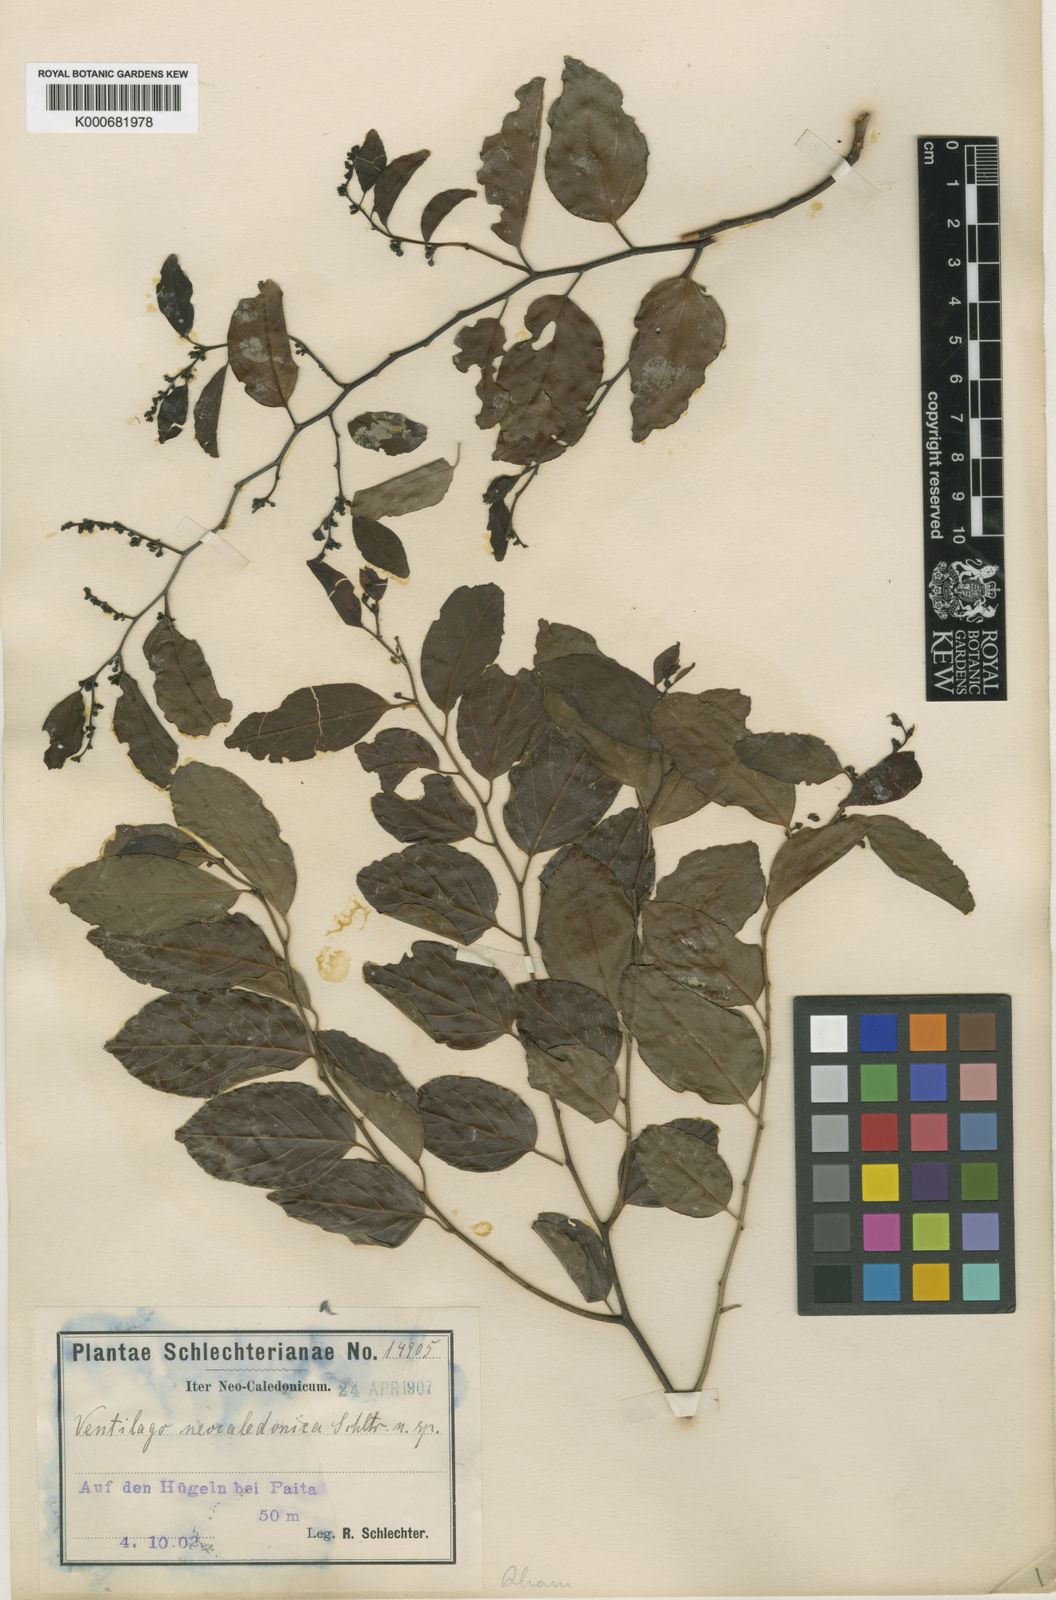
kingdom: Plantae
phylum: Tracheophyta
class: Magnoliopsida
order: Rosales
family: Rhamnaceae
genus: Ventilago
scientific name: Ventilago neocaledonica
